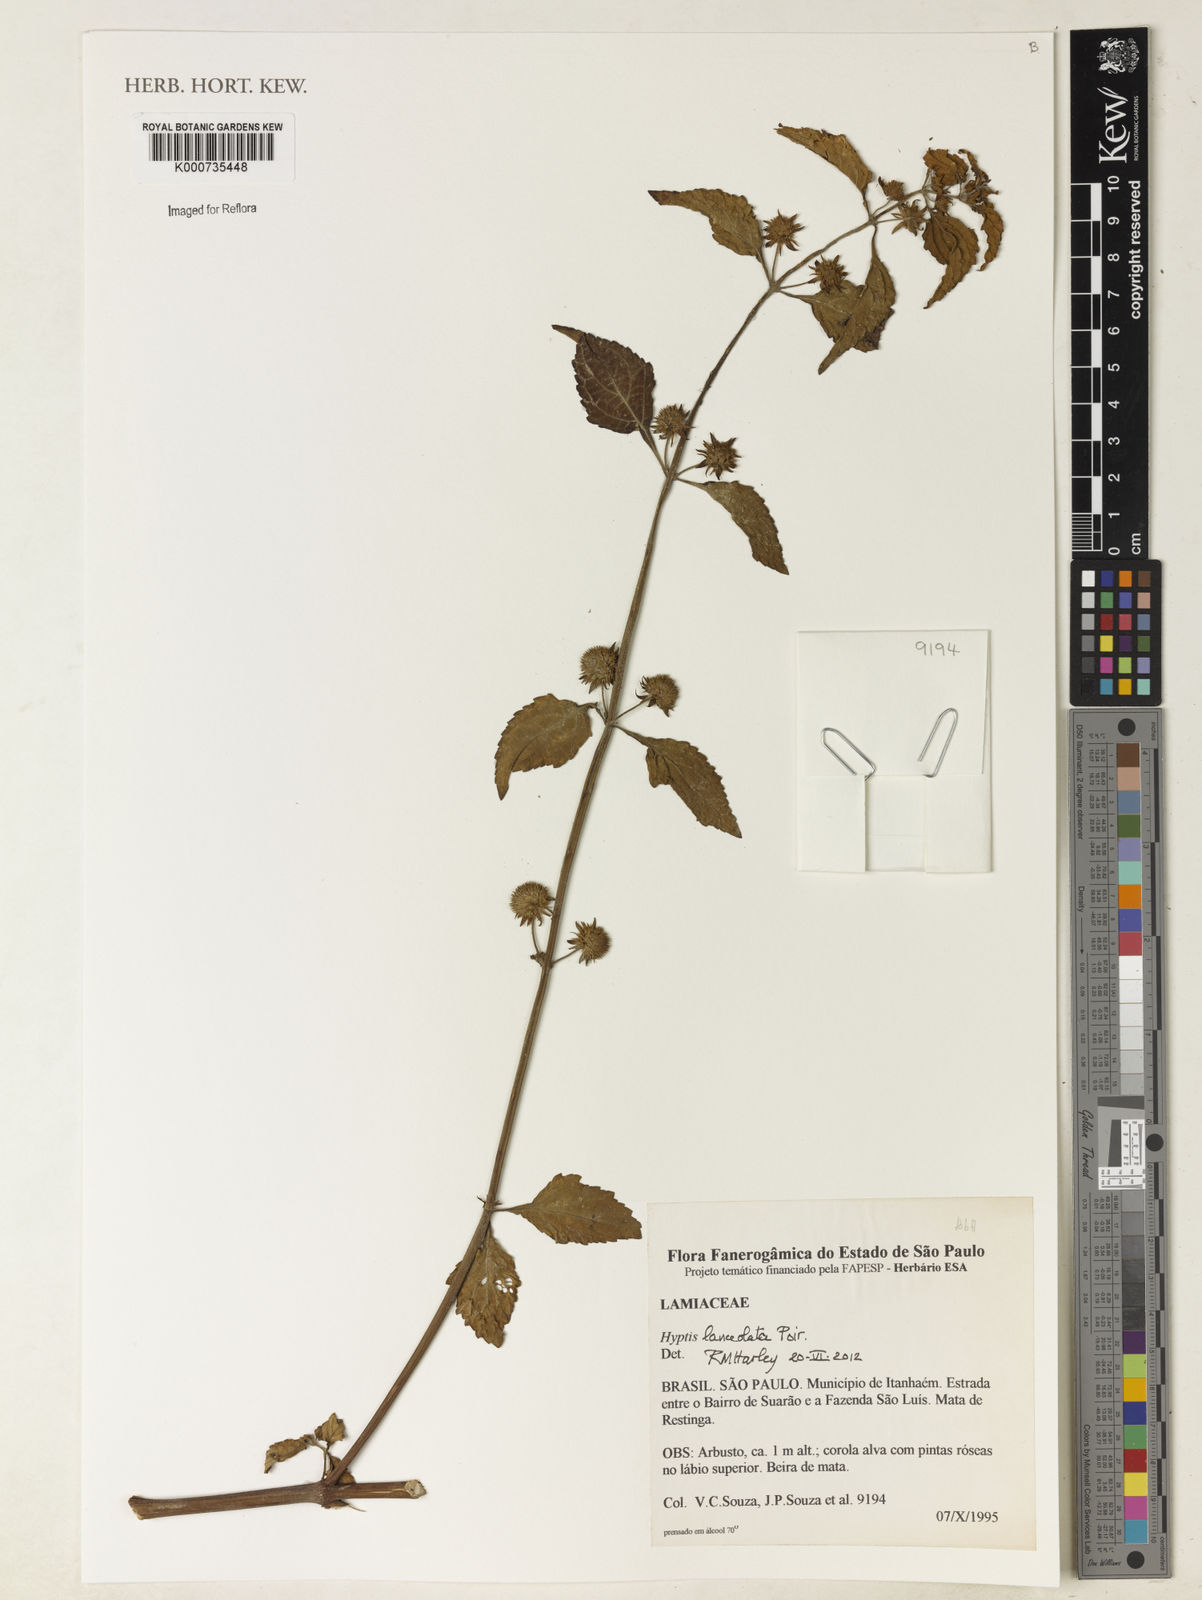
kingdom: Plantae
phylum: Tracheophyta
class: Magnoliopsida
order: Lamiales
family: Lamiaceae
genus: Hyptis
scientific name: Hyptis lanceolata
